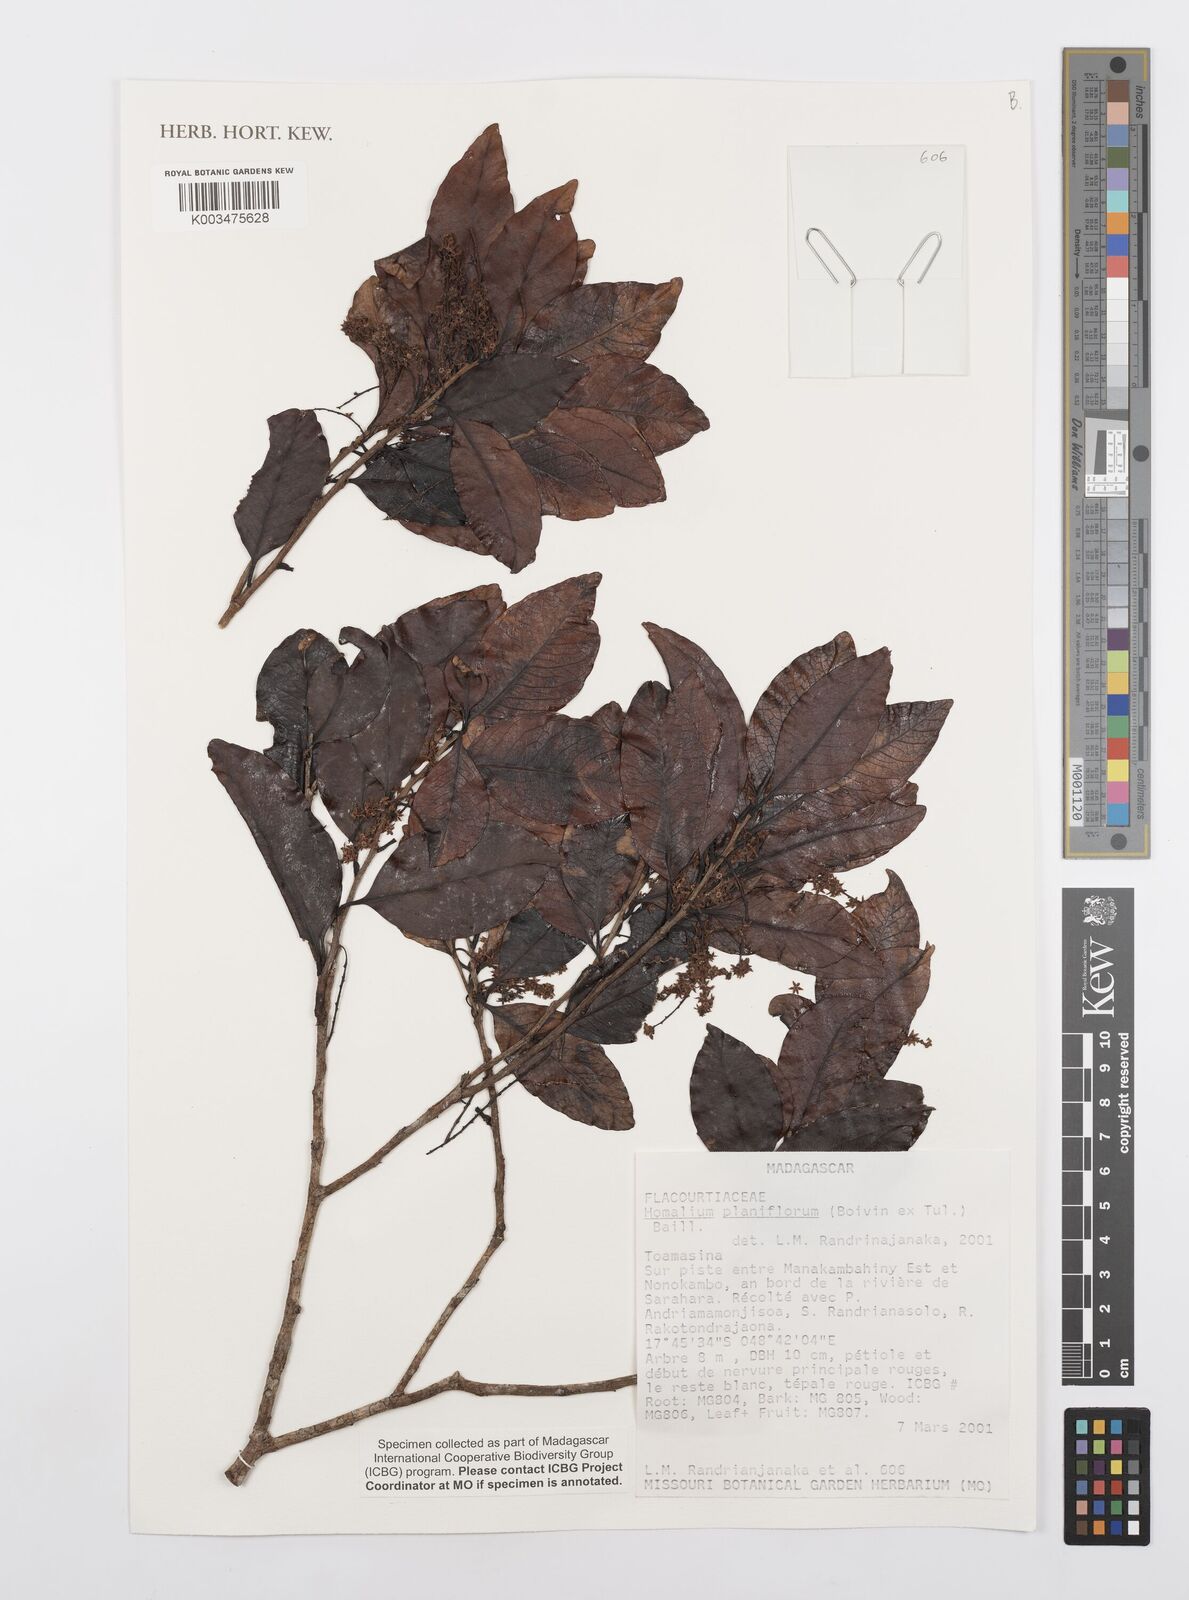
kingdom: Plantae
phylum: Tracheophyta
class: Magnoliopsida
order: Malpighiales
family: Salicaceae
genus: Homalium
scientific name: Homalium planiflorum
